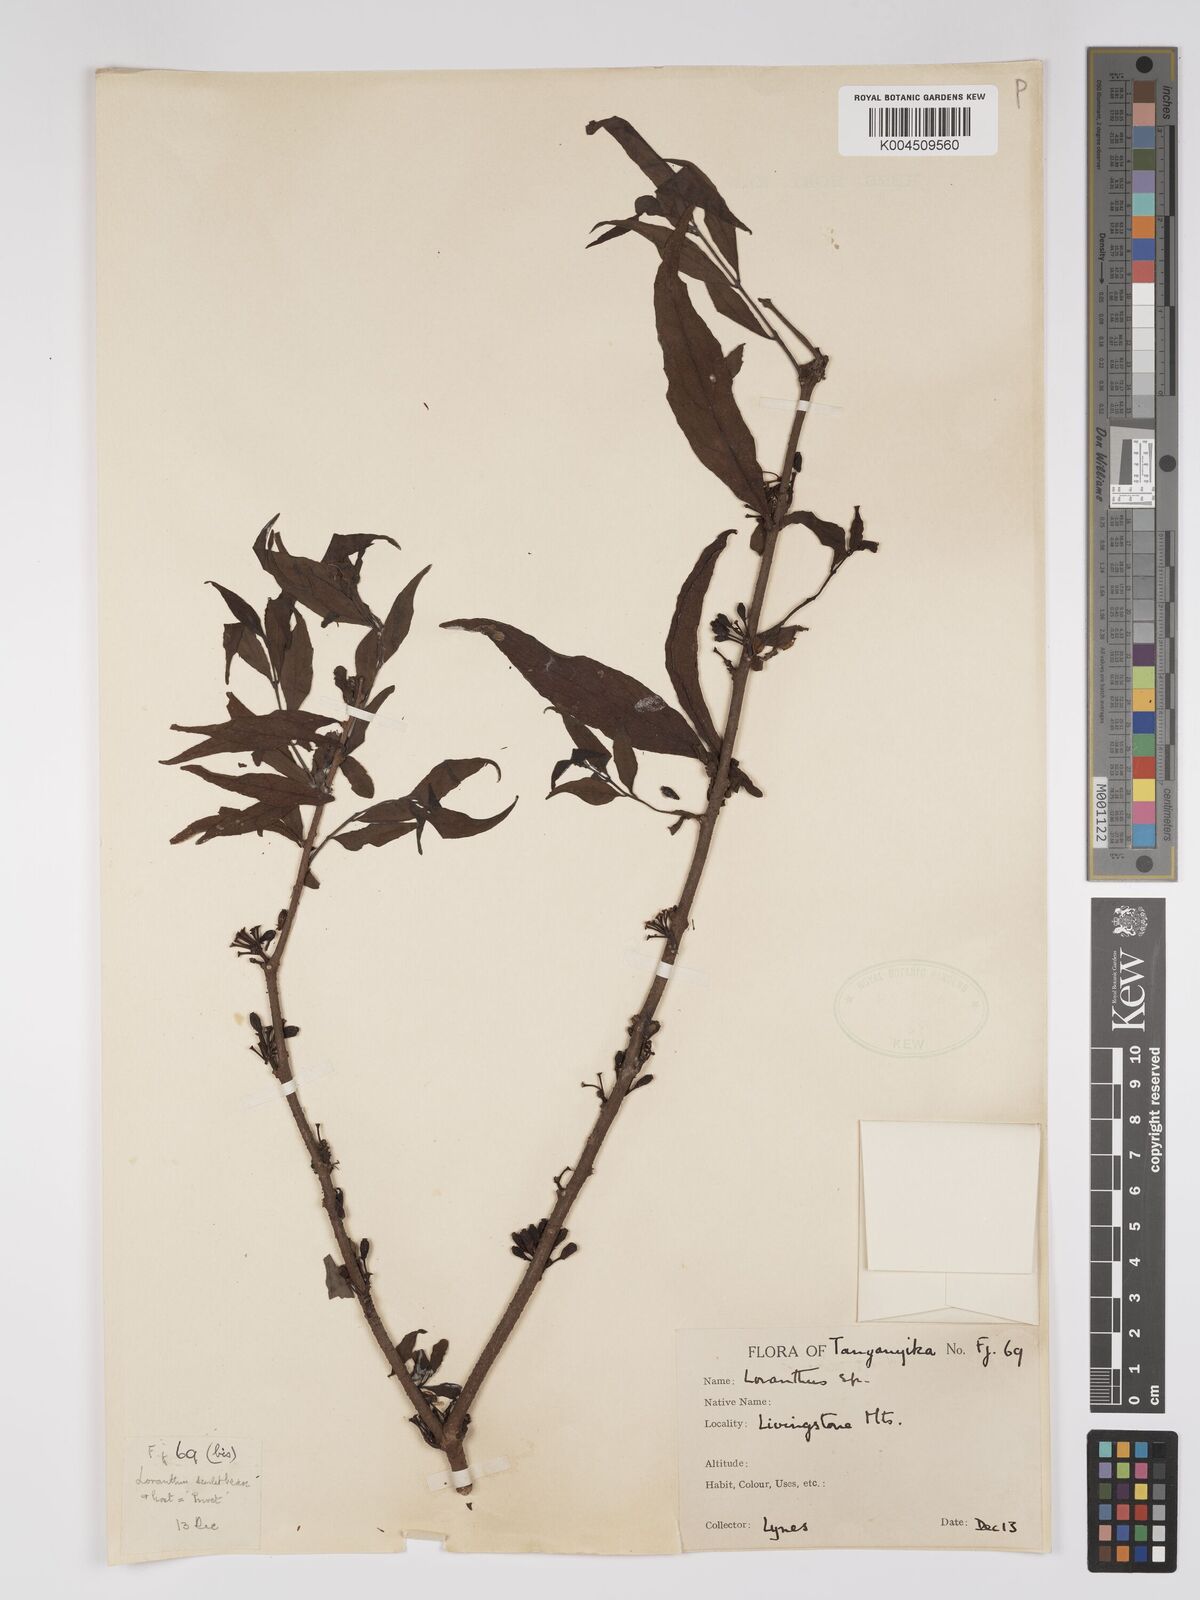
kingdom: Plantae
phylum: Tracheophyta
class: Magnoliopsida
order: Santalales
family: Loranthaceae
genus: Englerina
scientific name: Englerina inaequilatera
